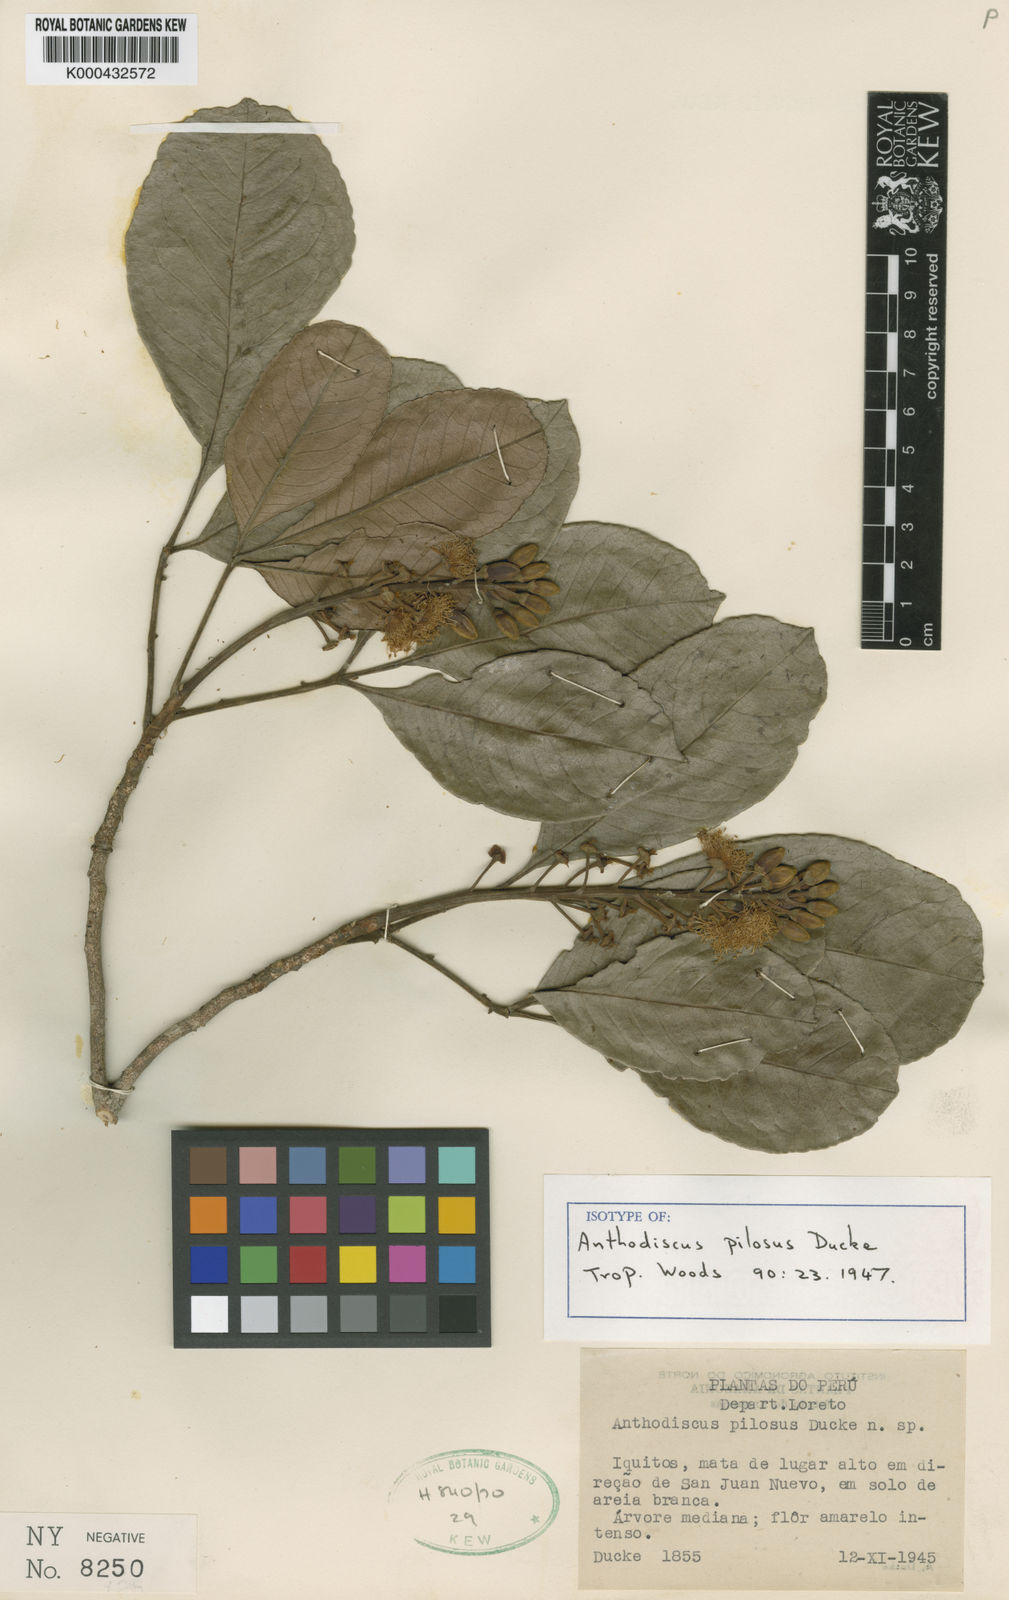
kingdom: Plantae
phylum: Tracheophyta
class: Magnoliopsida
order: Malpighiales
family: Caryocaraceae
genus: Anthodiscus
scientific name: Anthodiscus pilosus
